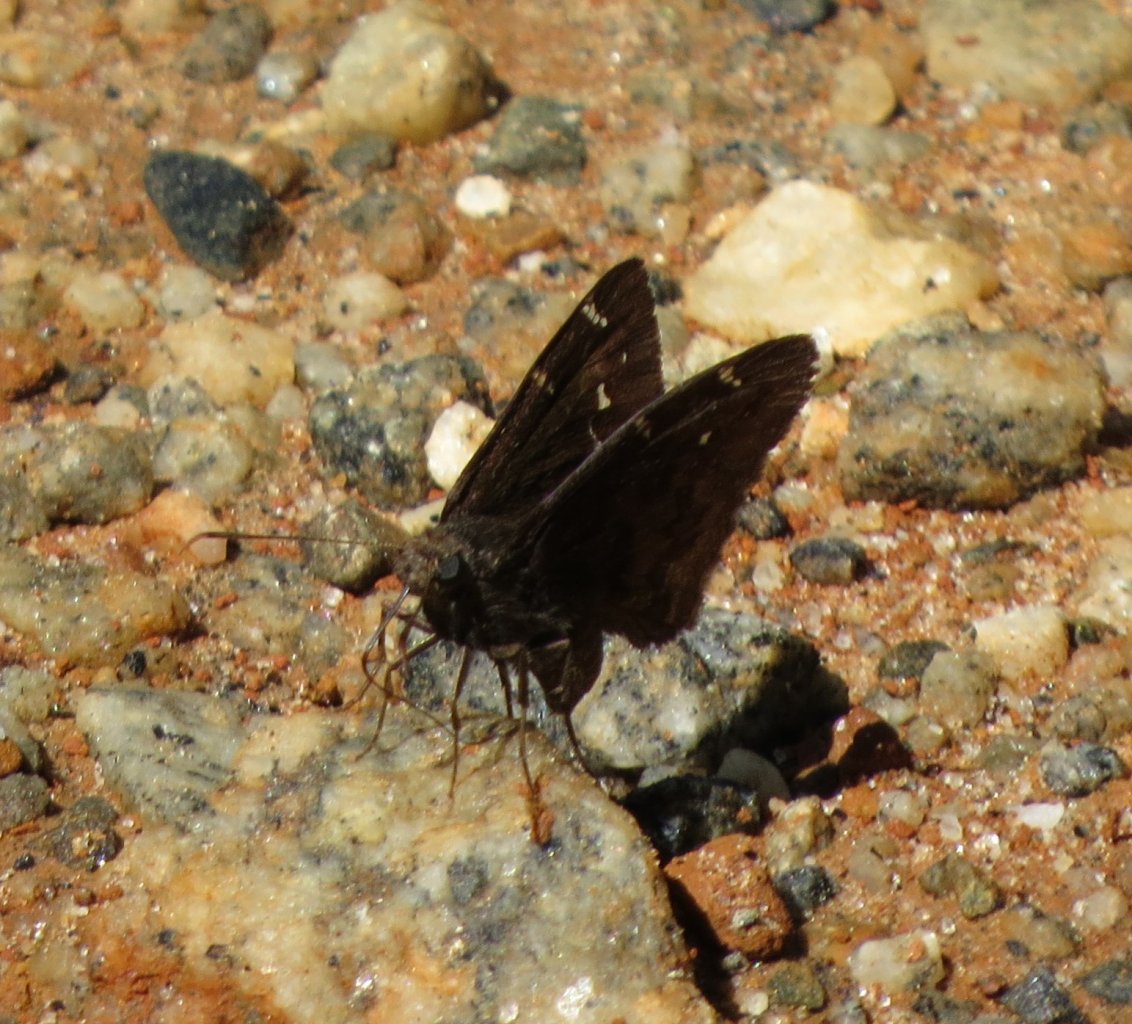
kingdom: Animalia
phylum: Arthropoda
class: Insecta
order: Lepidoptera
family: Hesperiidae
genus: Autochton
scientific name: Autochton
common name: Northern Cloudywing
